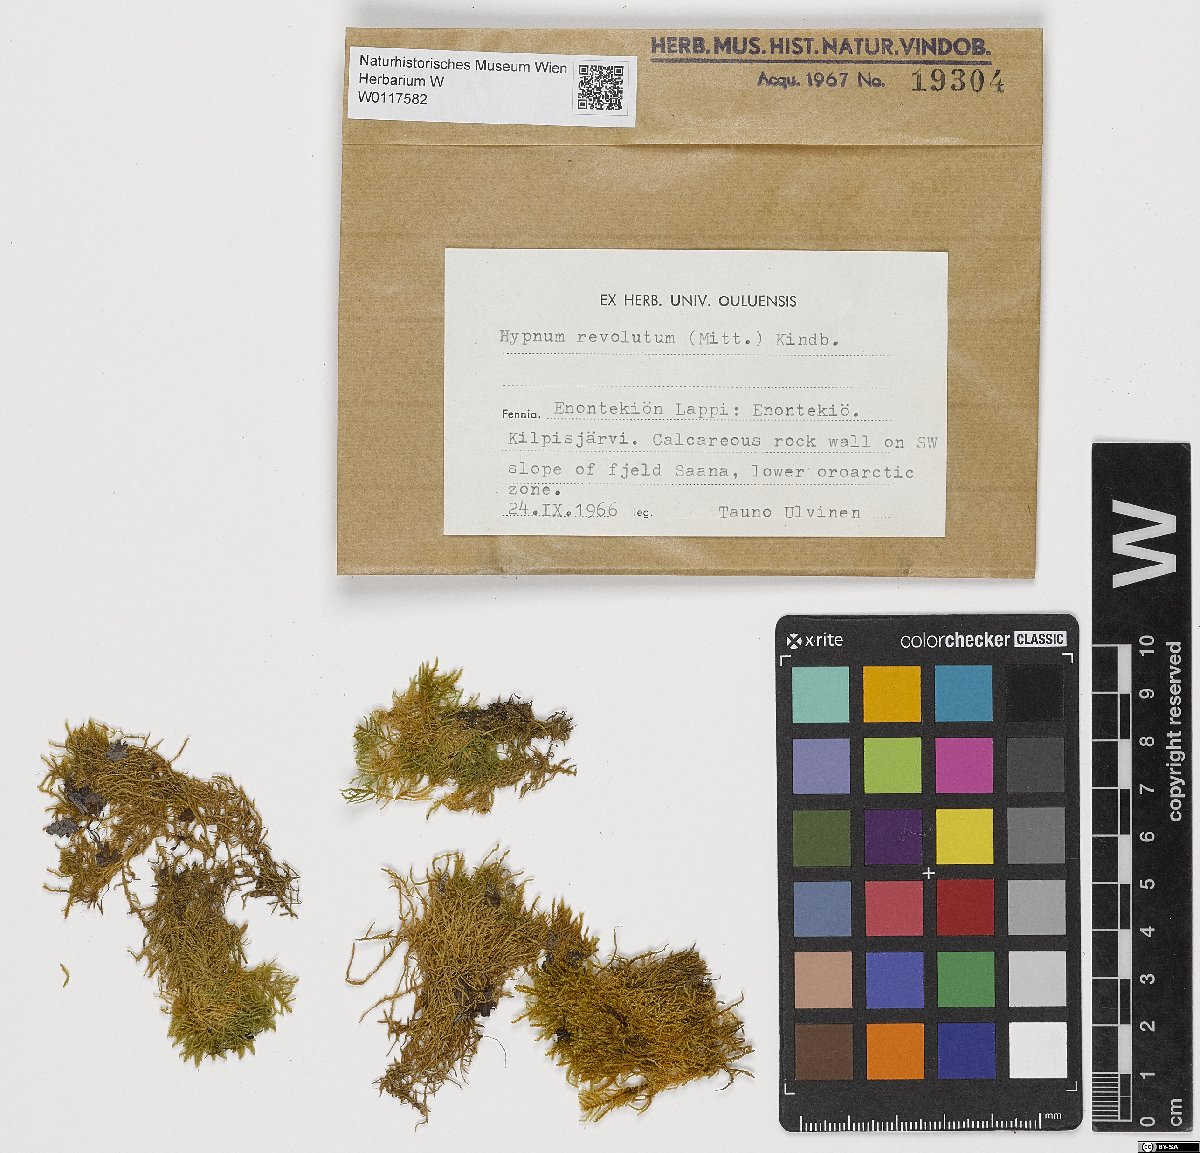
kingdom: Plantae
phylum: Bryophyta
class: Bryopsida
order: Hypnales
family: Pylaisiaceae
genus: Roaldia
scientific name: Roaldia revoluta
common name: Revolute plait-moss
